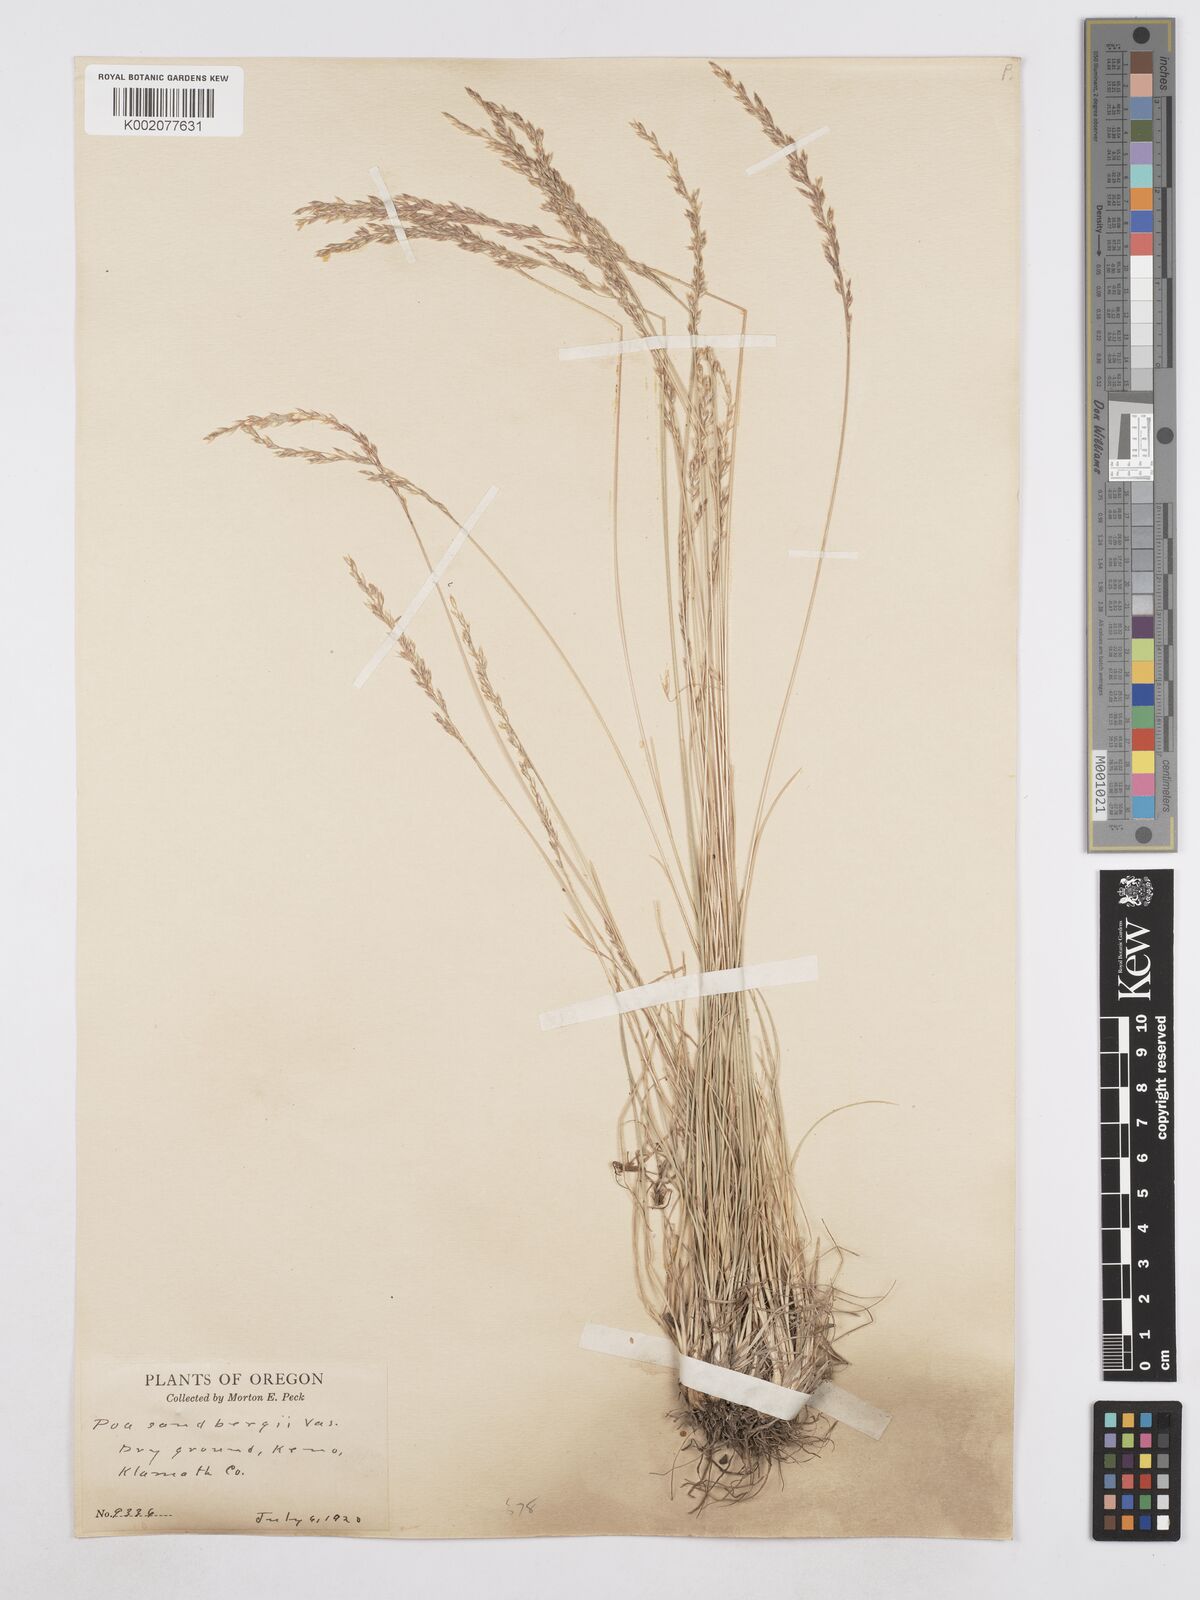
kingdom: Plantae
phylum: Tracheophyta
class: Liliopsida
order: Poales
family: Poaceae
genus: Poa
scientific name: Poa secunda
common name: Sandberg bluegrass
